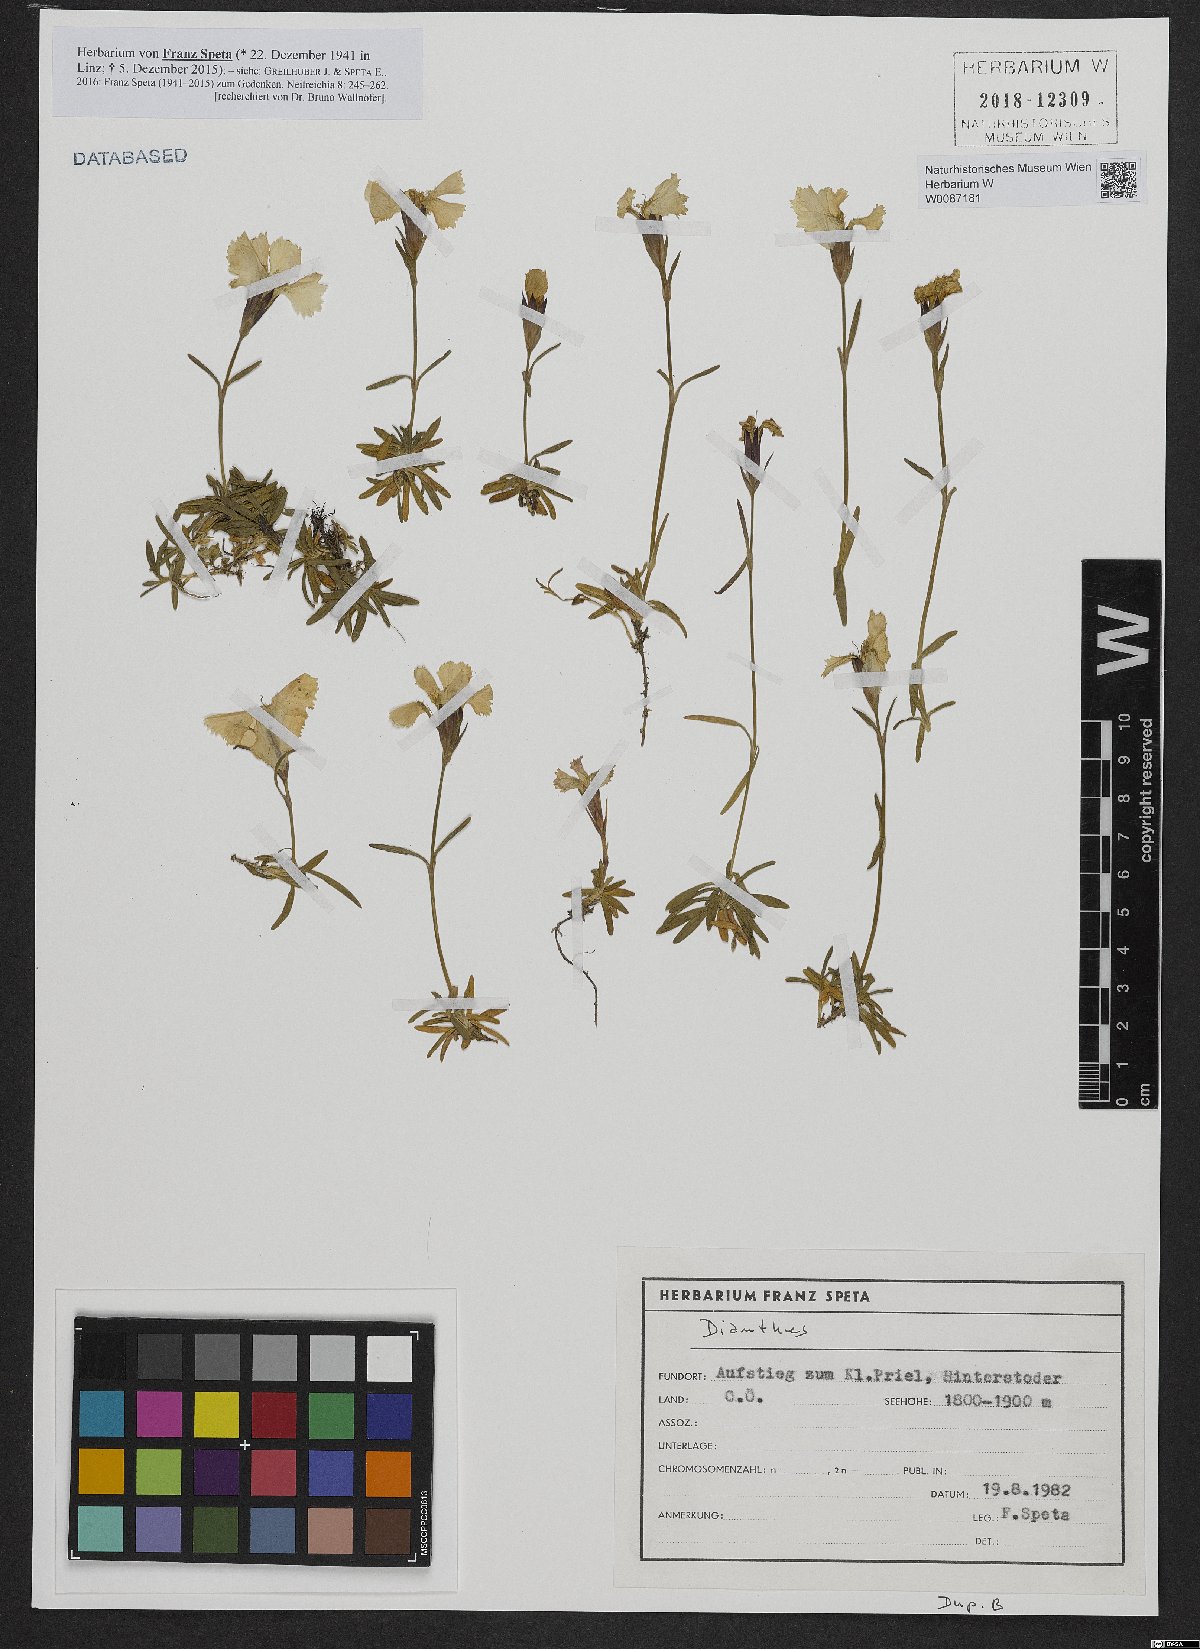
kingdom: Plantae
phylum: Tracheophyta
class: Magnoliopsida
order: Caryophyllales
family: Caryophyllaceae
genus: Dianthus
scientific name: Dianthus alpinus
